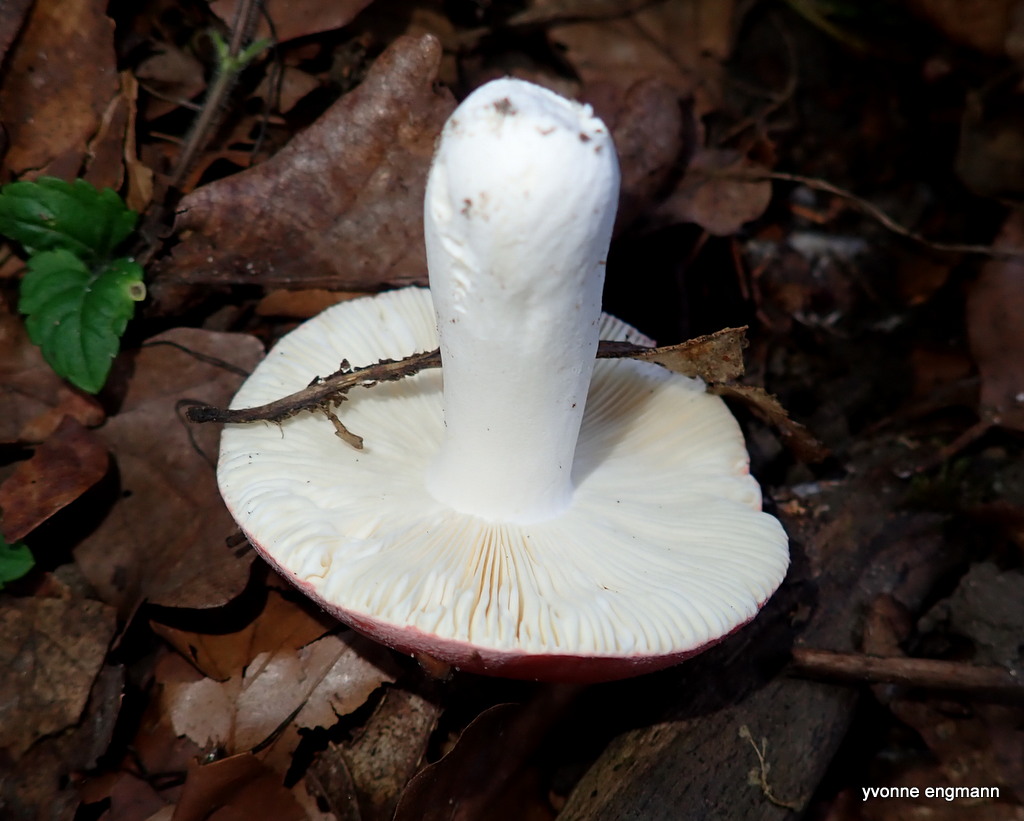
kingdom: Fungi
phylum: Basidiomycota
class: Agaricomycetes
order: Russulales
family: Russulaceae
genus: Russula
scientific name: Russula aurora
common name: rosa skørhat
